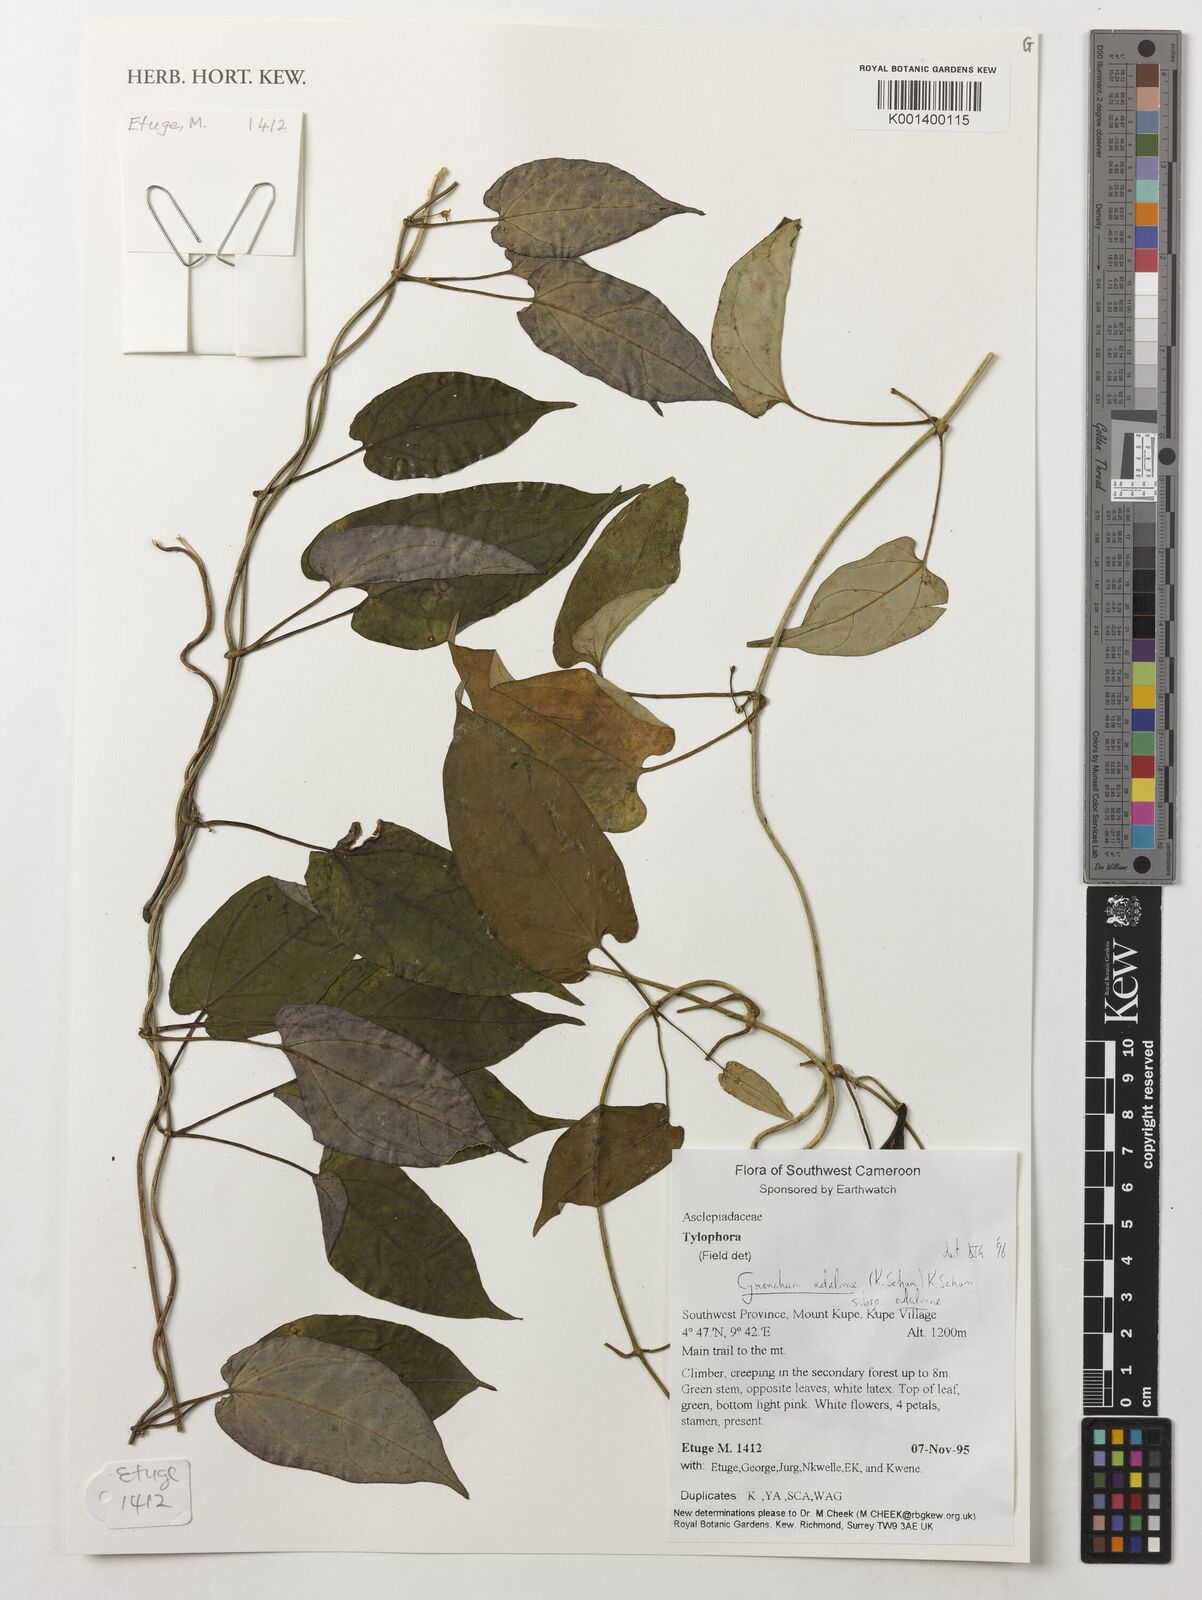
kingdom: Plantae
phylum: Tracheophyta
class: Magnoliopsida
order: Gentianales
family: Apocynaceae
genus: Cynanchum
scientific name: Cynanchum adalinae
